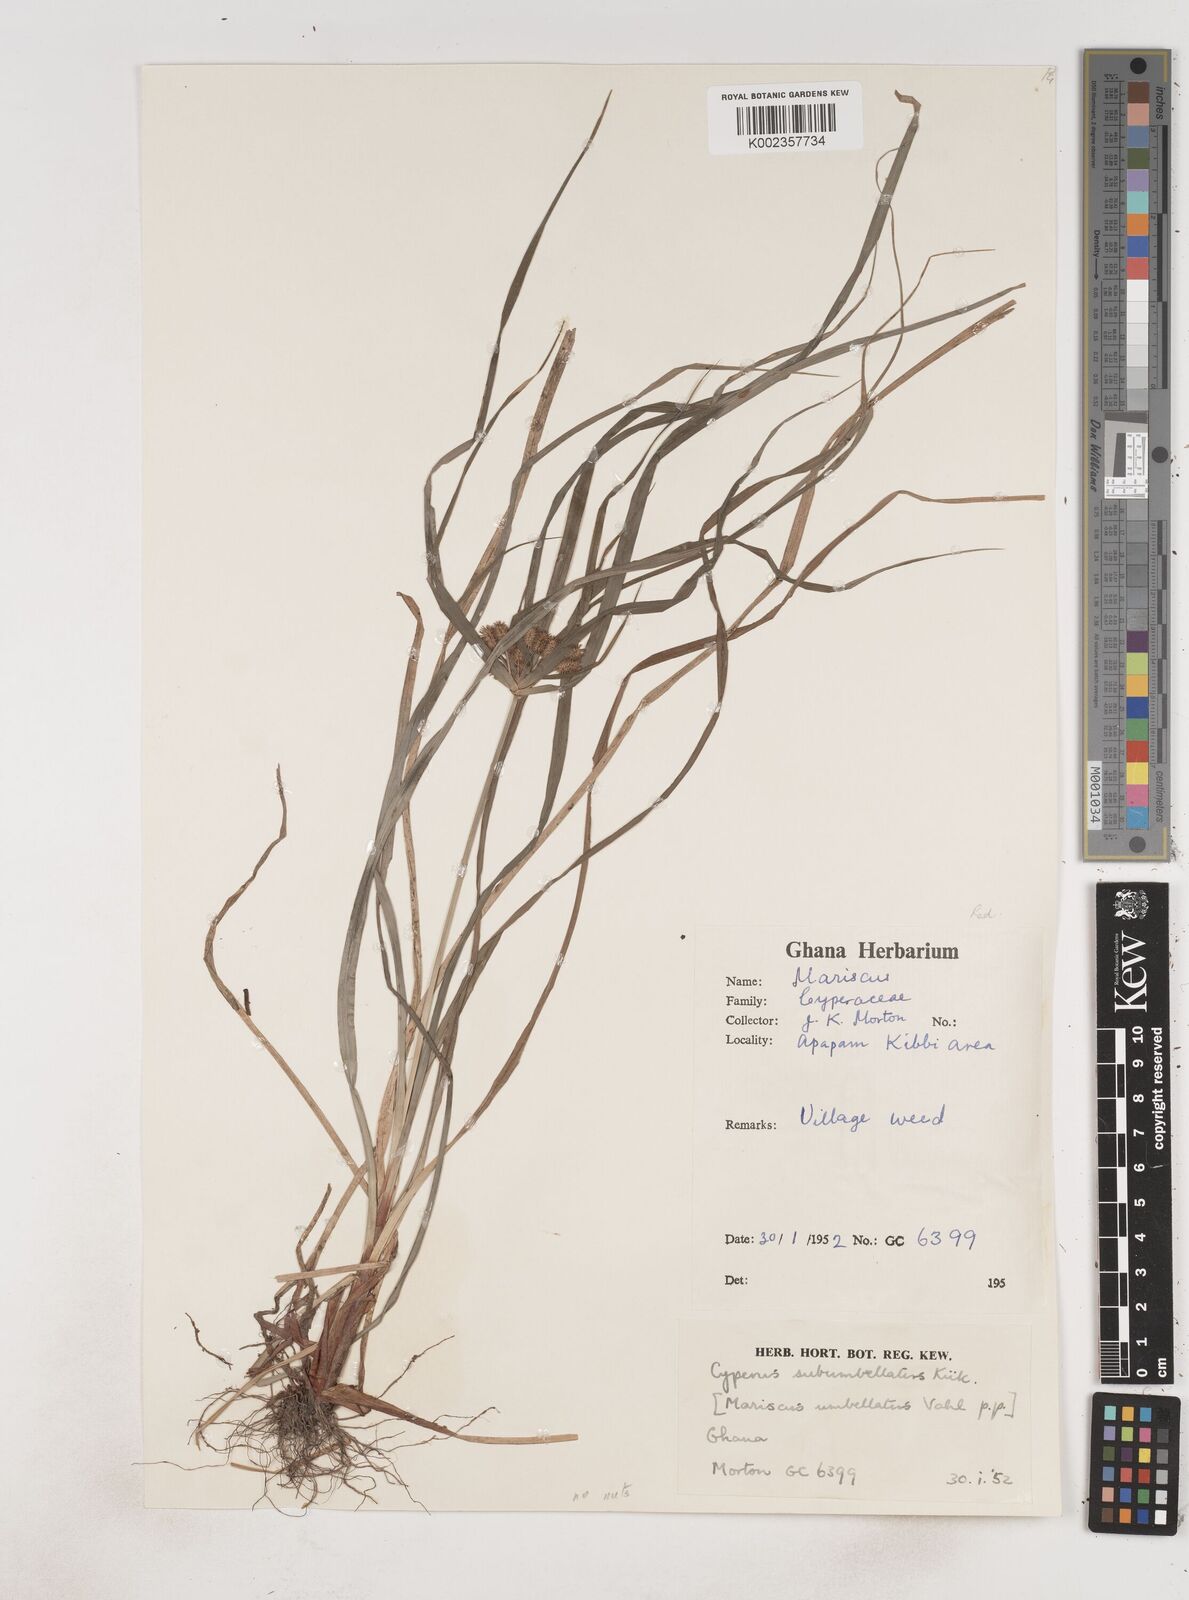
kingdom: Plantae
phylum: Tracheophyta
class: Liliopsida
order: Poales
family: Cyperaceae
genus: Cyperus
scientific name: Cyperus sublimis
